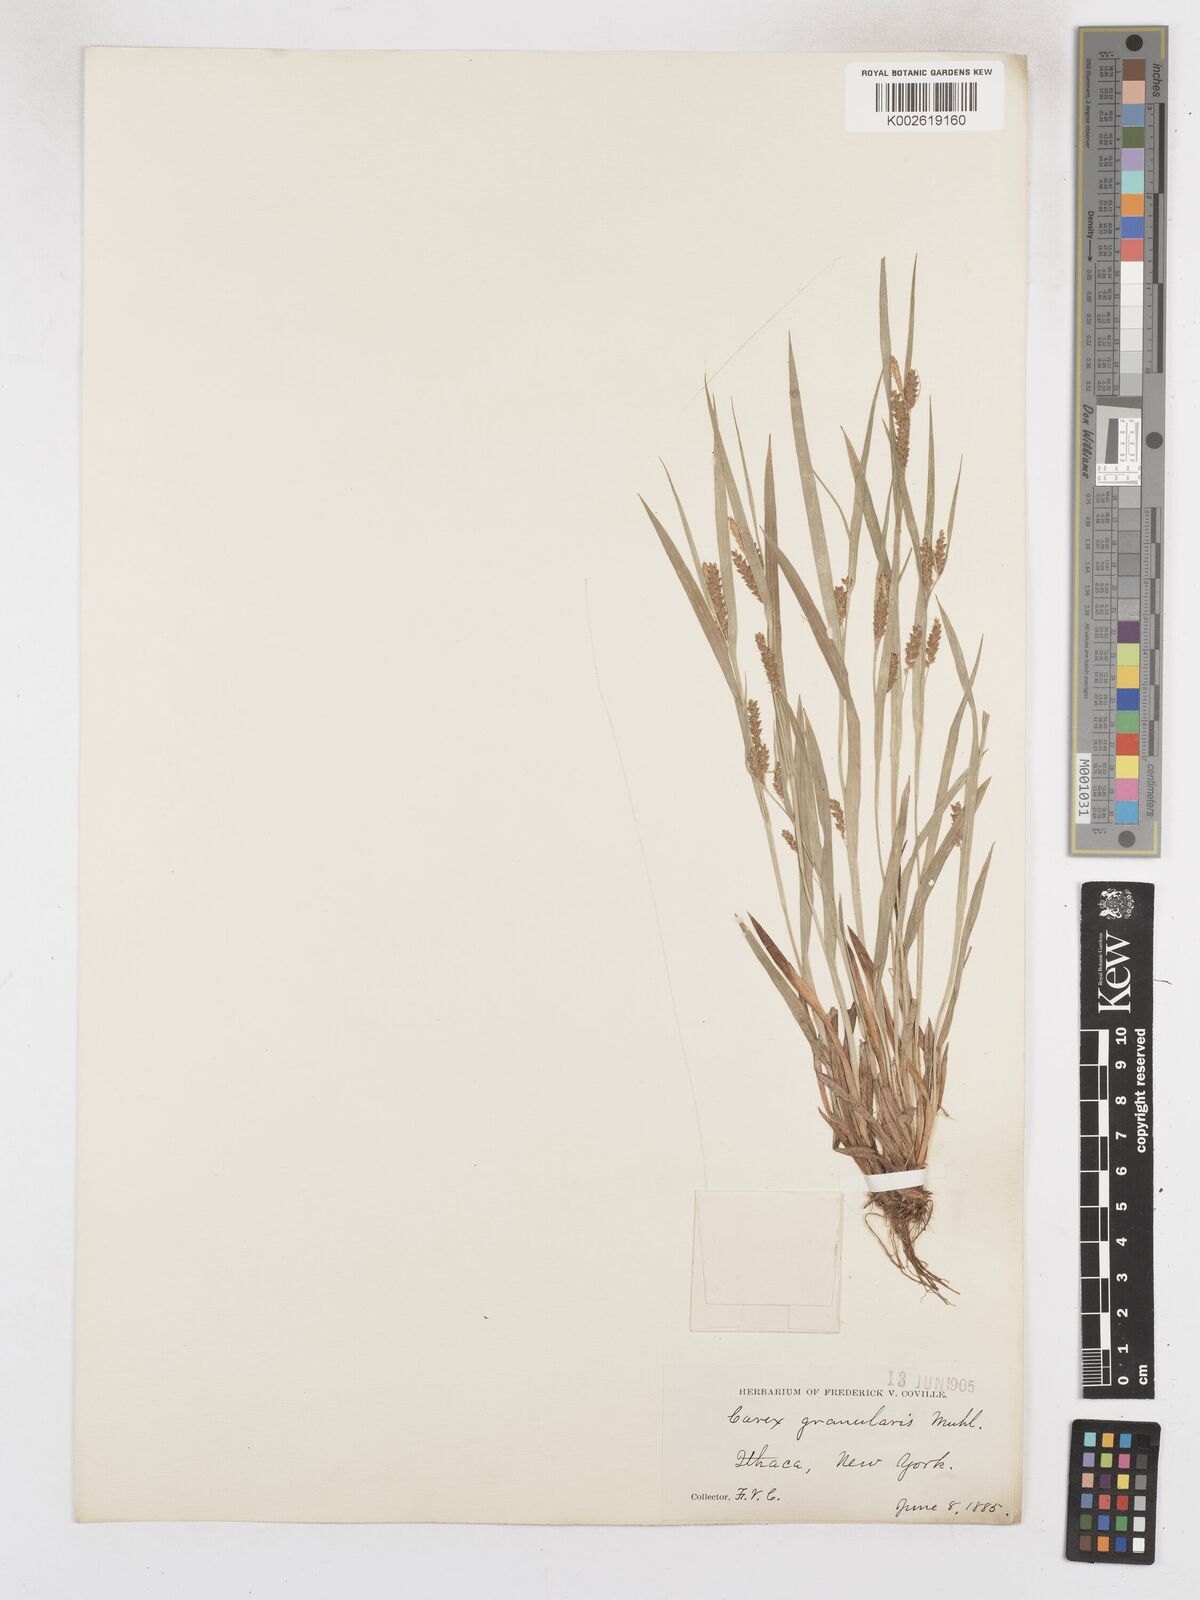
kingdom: Plantae
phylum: Tracheophyta
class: Liliopsida
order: Poales
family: Cyperaceae
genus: Carex
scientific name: Carex granularis
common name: Granular sedge
